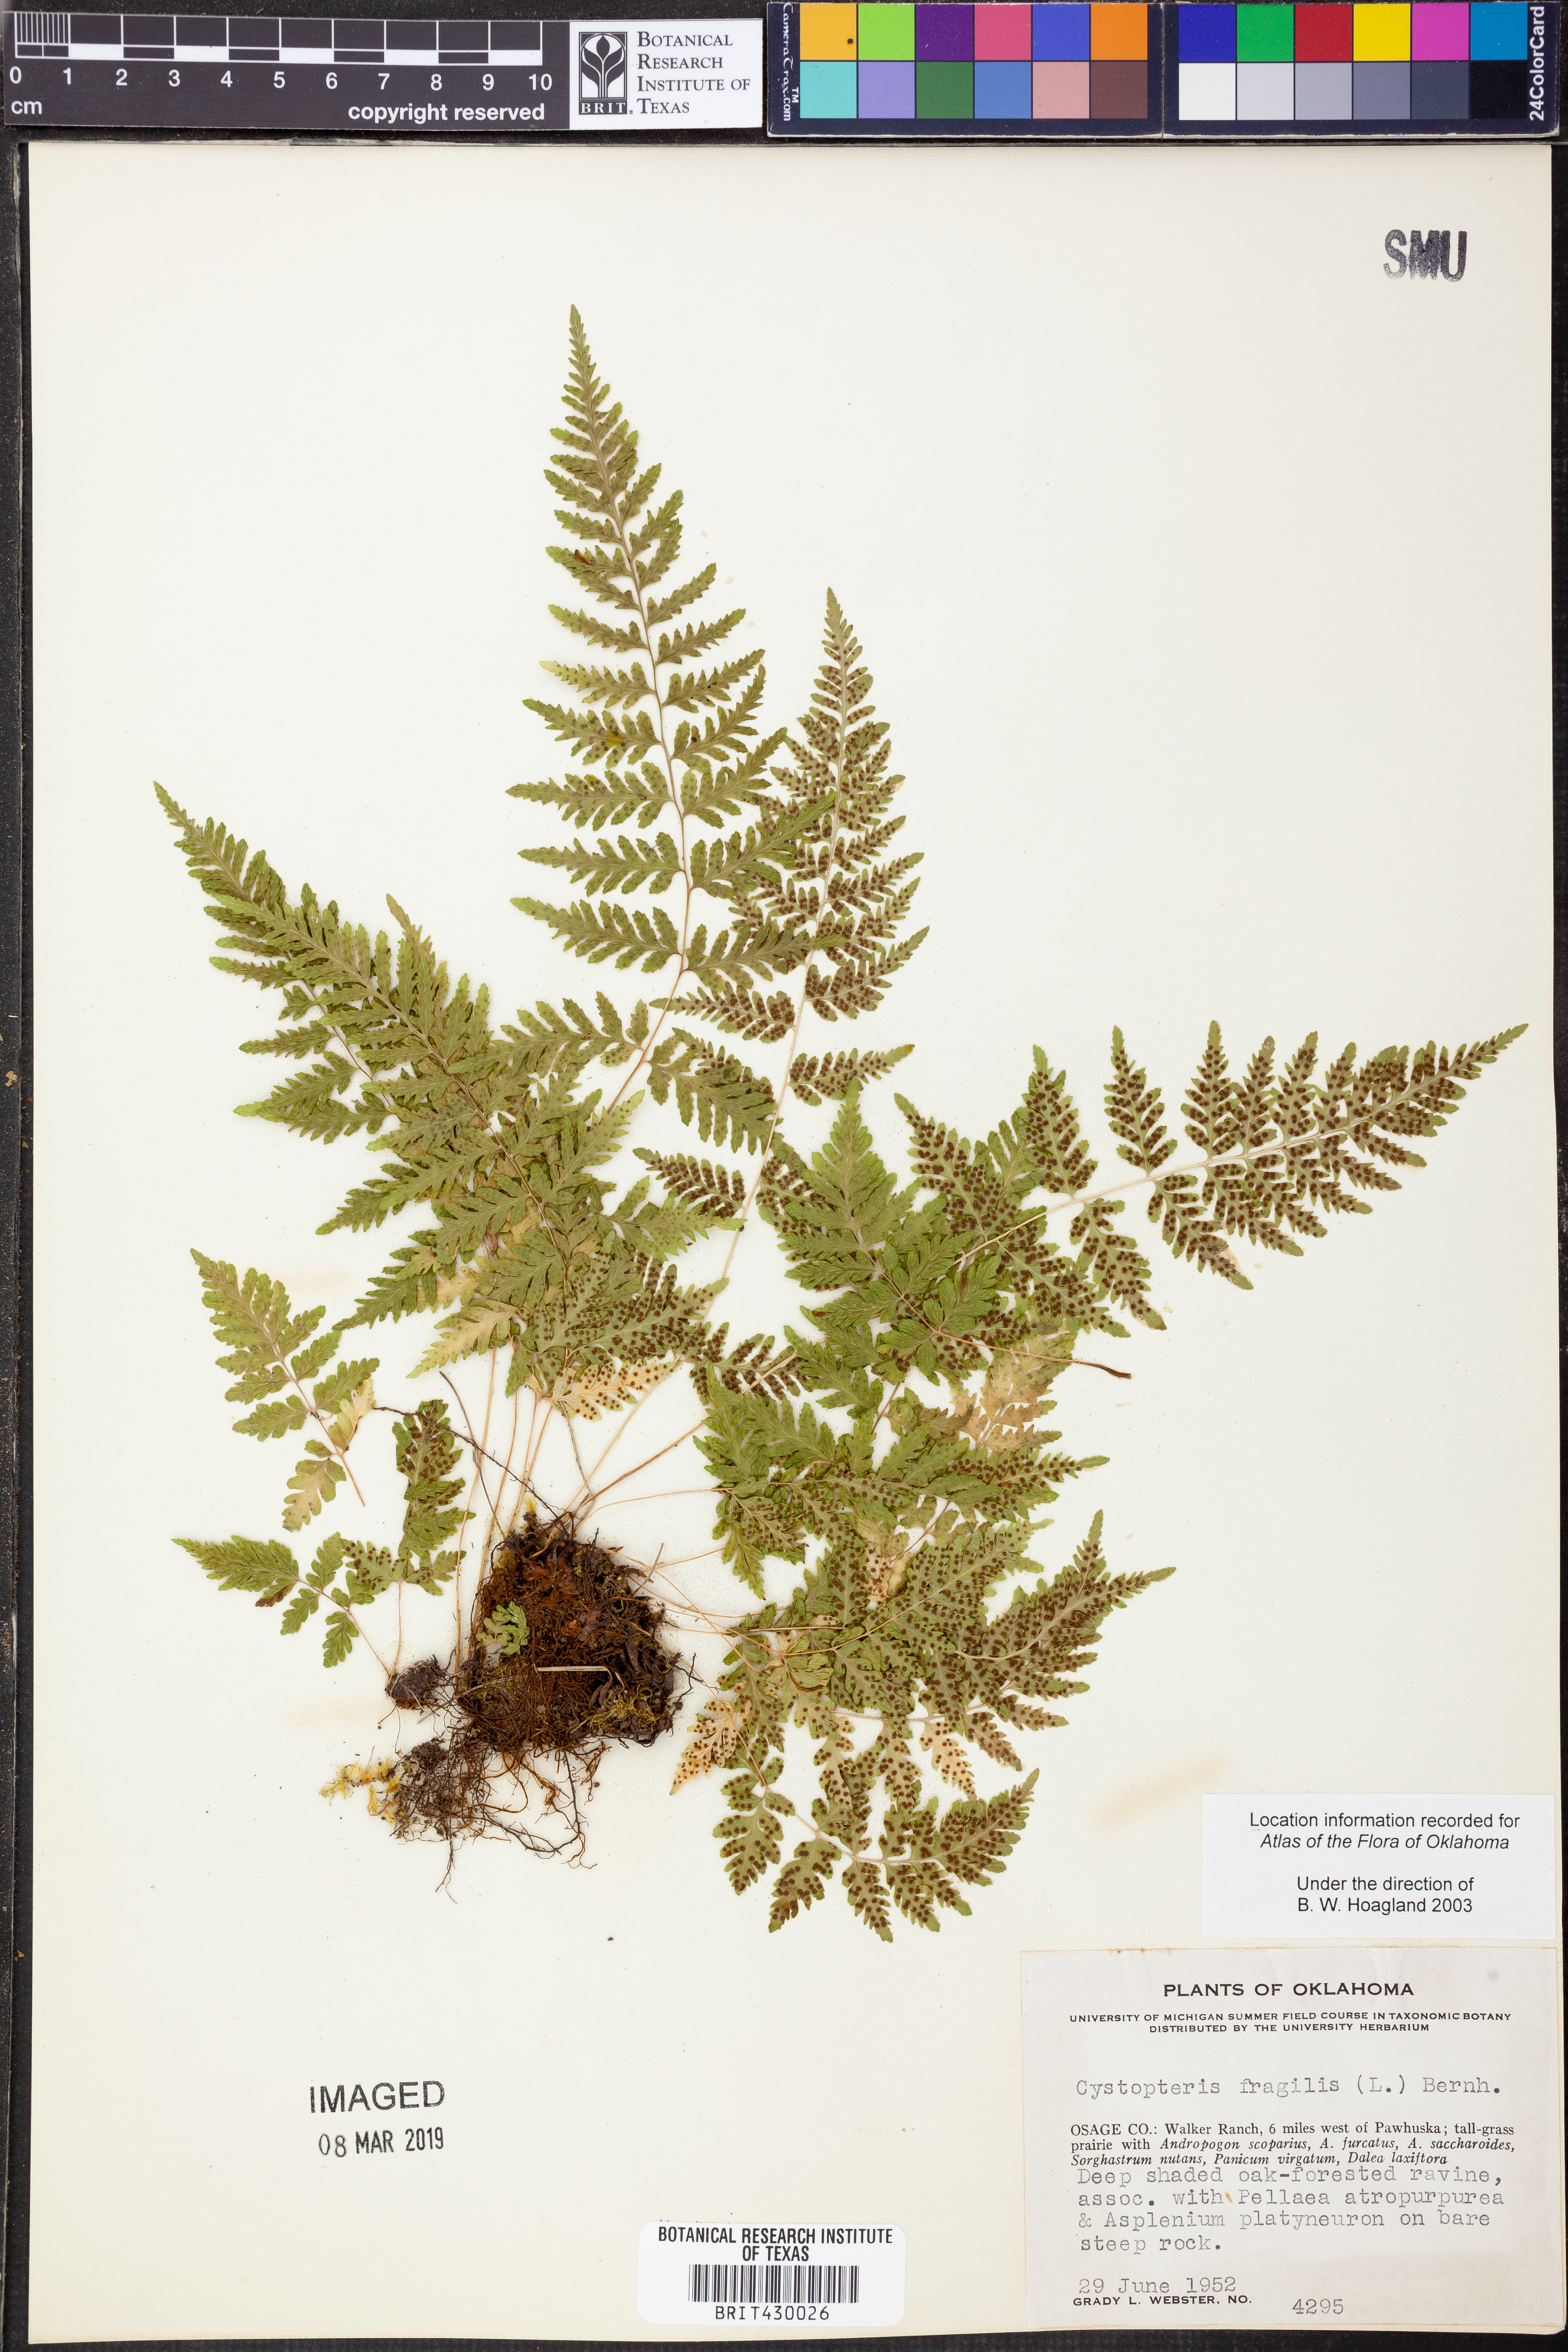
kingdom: Plantae
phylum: Tracheophyta
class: Polypodiopsida
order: Polypodiales
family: Cystopteridaceae
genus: Cystopteris
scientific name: Cystopteris fragilis
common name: Brittle bladder fern
